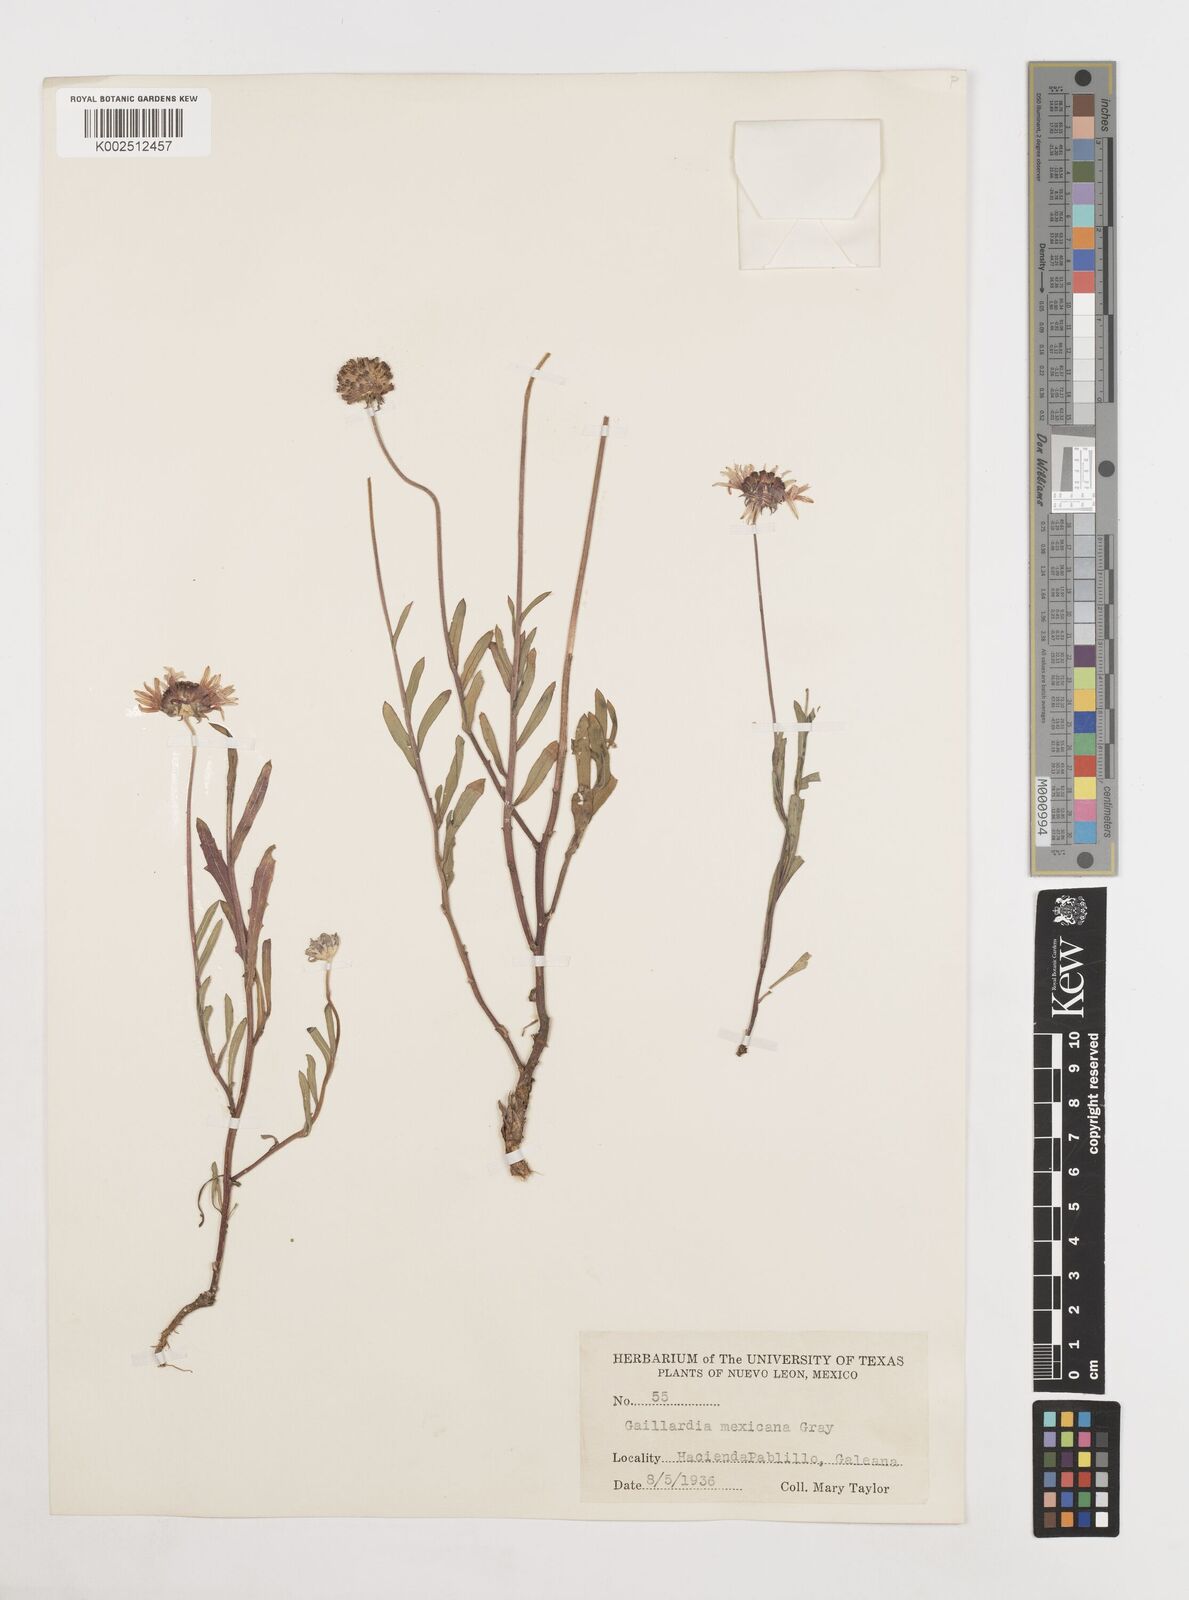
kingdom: Plantae
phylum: Tracheophyta
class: Magnoliopsida
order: Asterales
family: Asteraceae
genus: Gaillardia
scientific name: Gaillardia mexicana
